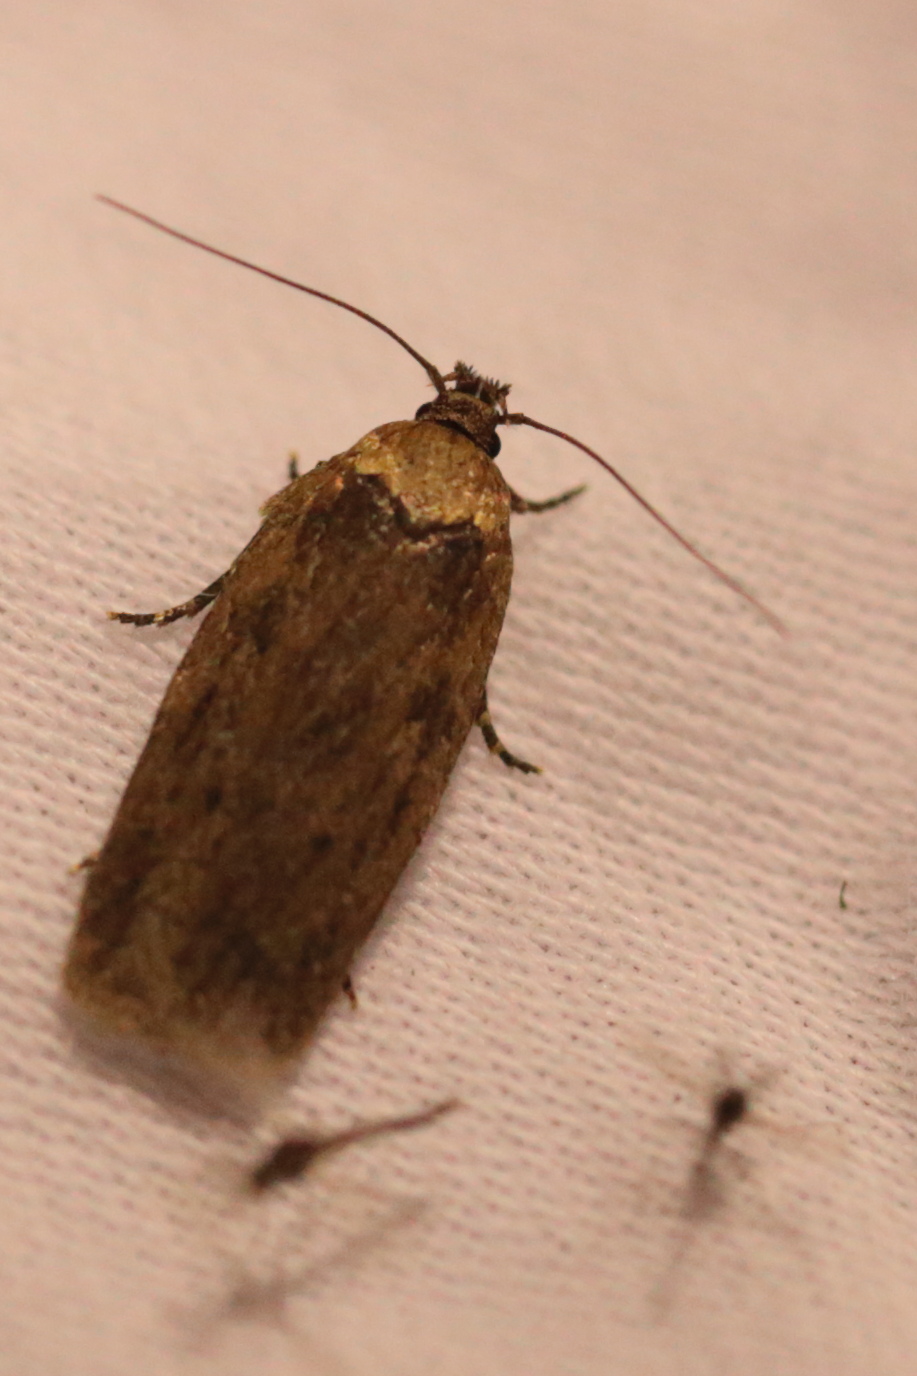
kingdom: Animalia
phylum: Arthropoda
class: Insecta
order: Lepidoptera
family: Depressariidae
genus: Depressaria
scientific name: Depressaria badiella
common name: Brown flat-body
